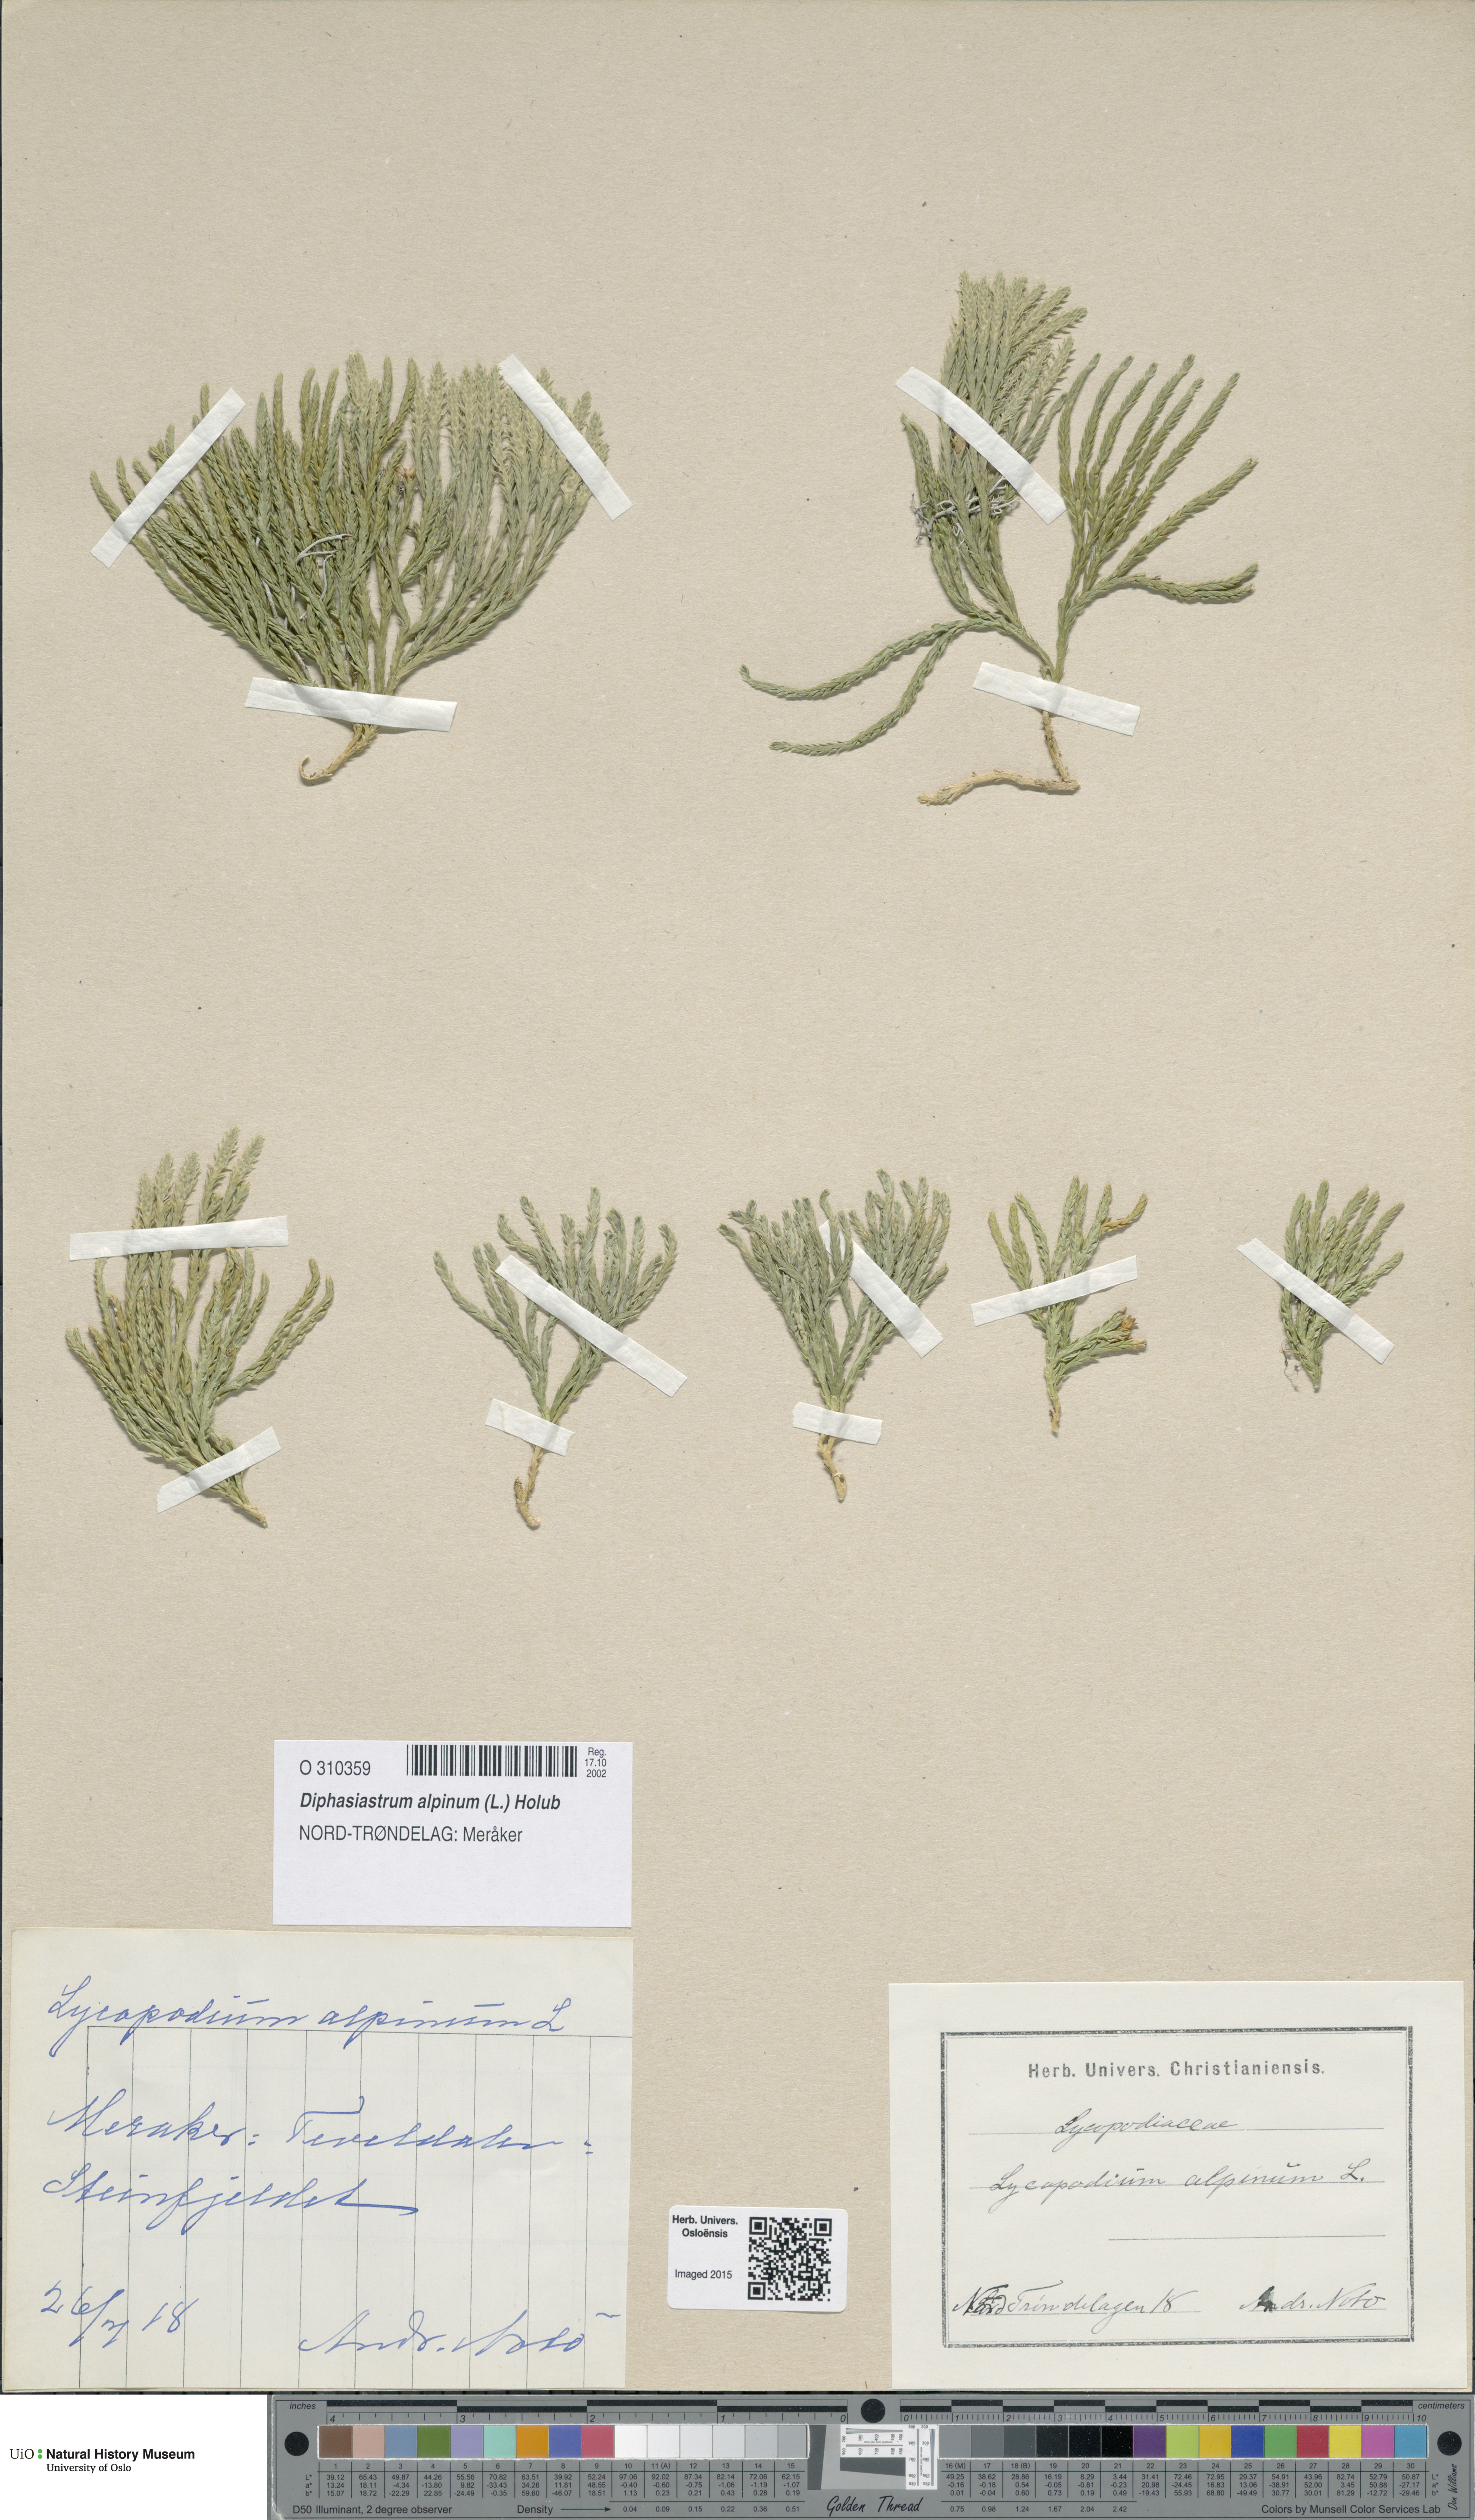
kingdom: Plantae
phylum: Tracheophyta
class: Lycopodiopsida
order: Lycopodiales
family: Lycopodiaceae
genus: Diphasiastrum
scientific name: Diphasiastrum alpinum
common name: Alpine clubmoss
